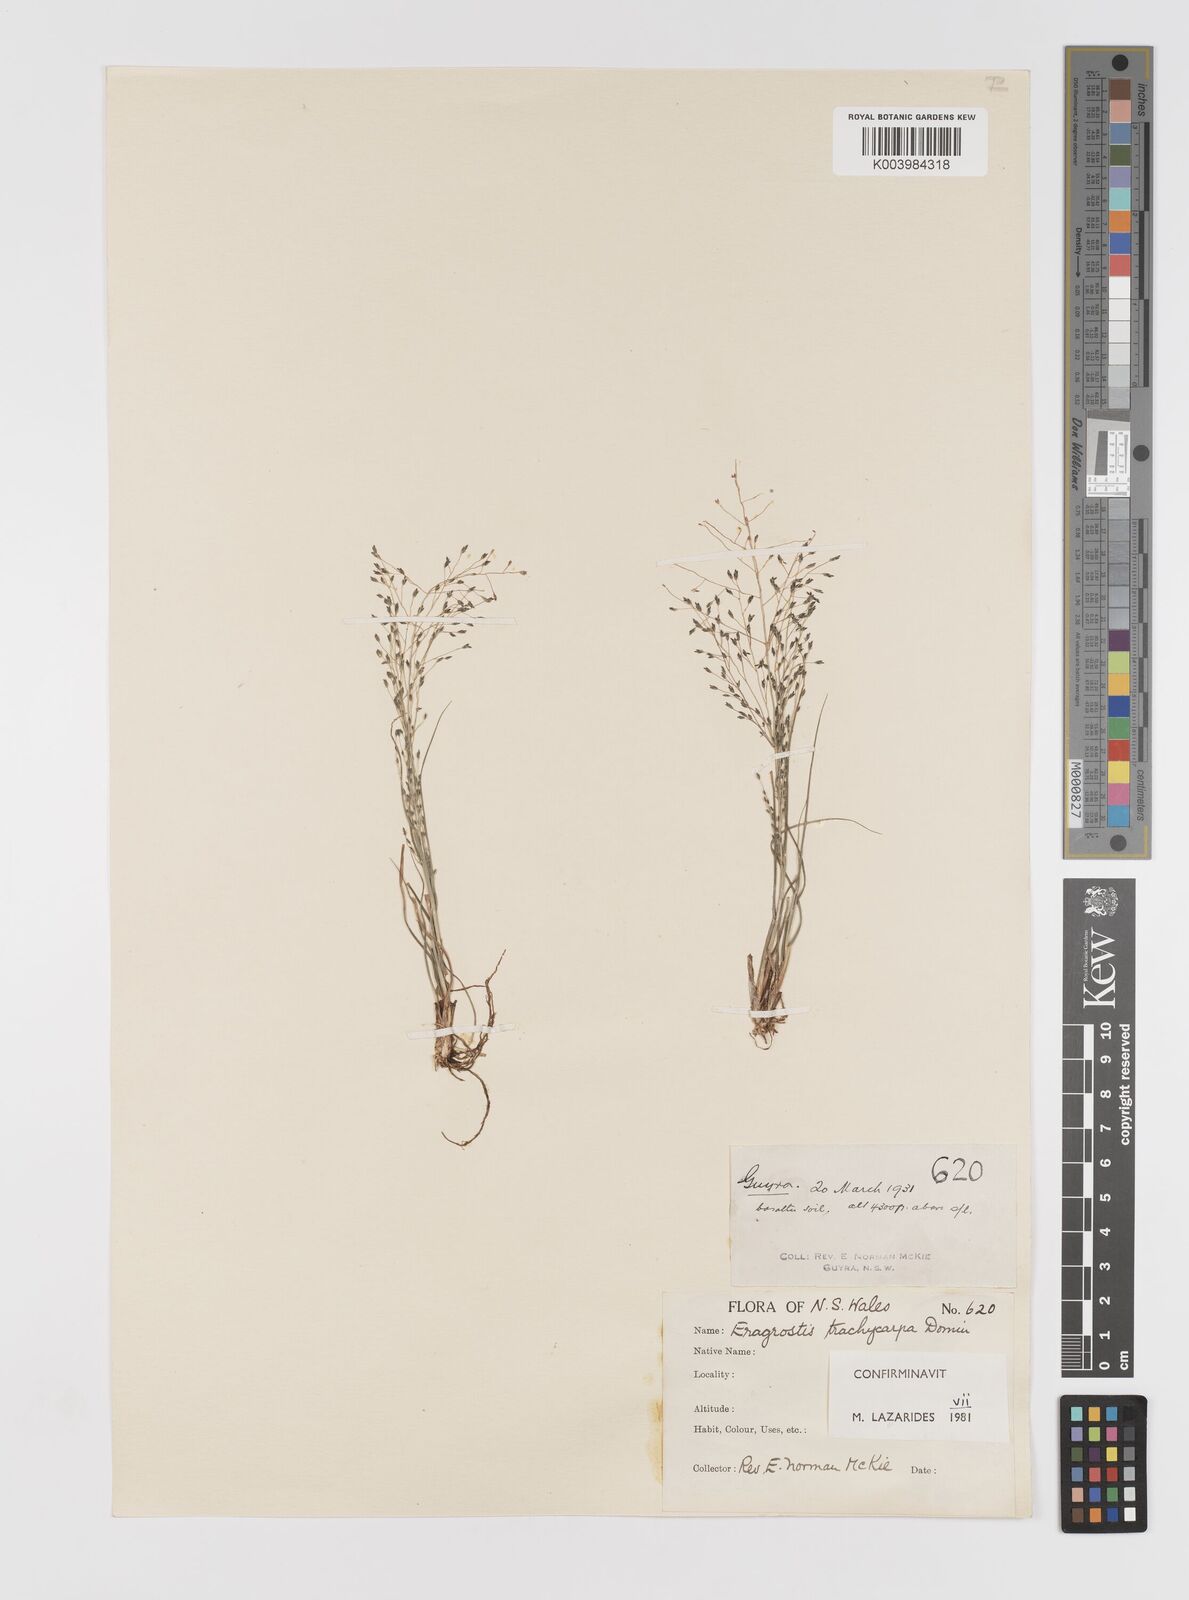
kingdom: Plantae
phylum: Tracheophyta
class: Liliopsida
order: Poales
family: Poaceae
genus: Eragrostis
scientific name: Eragrostis trachycarpa
